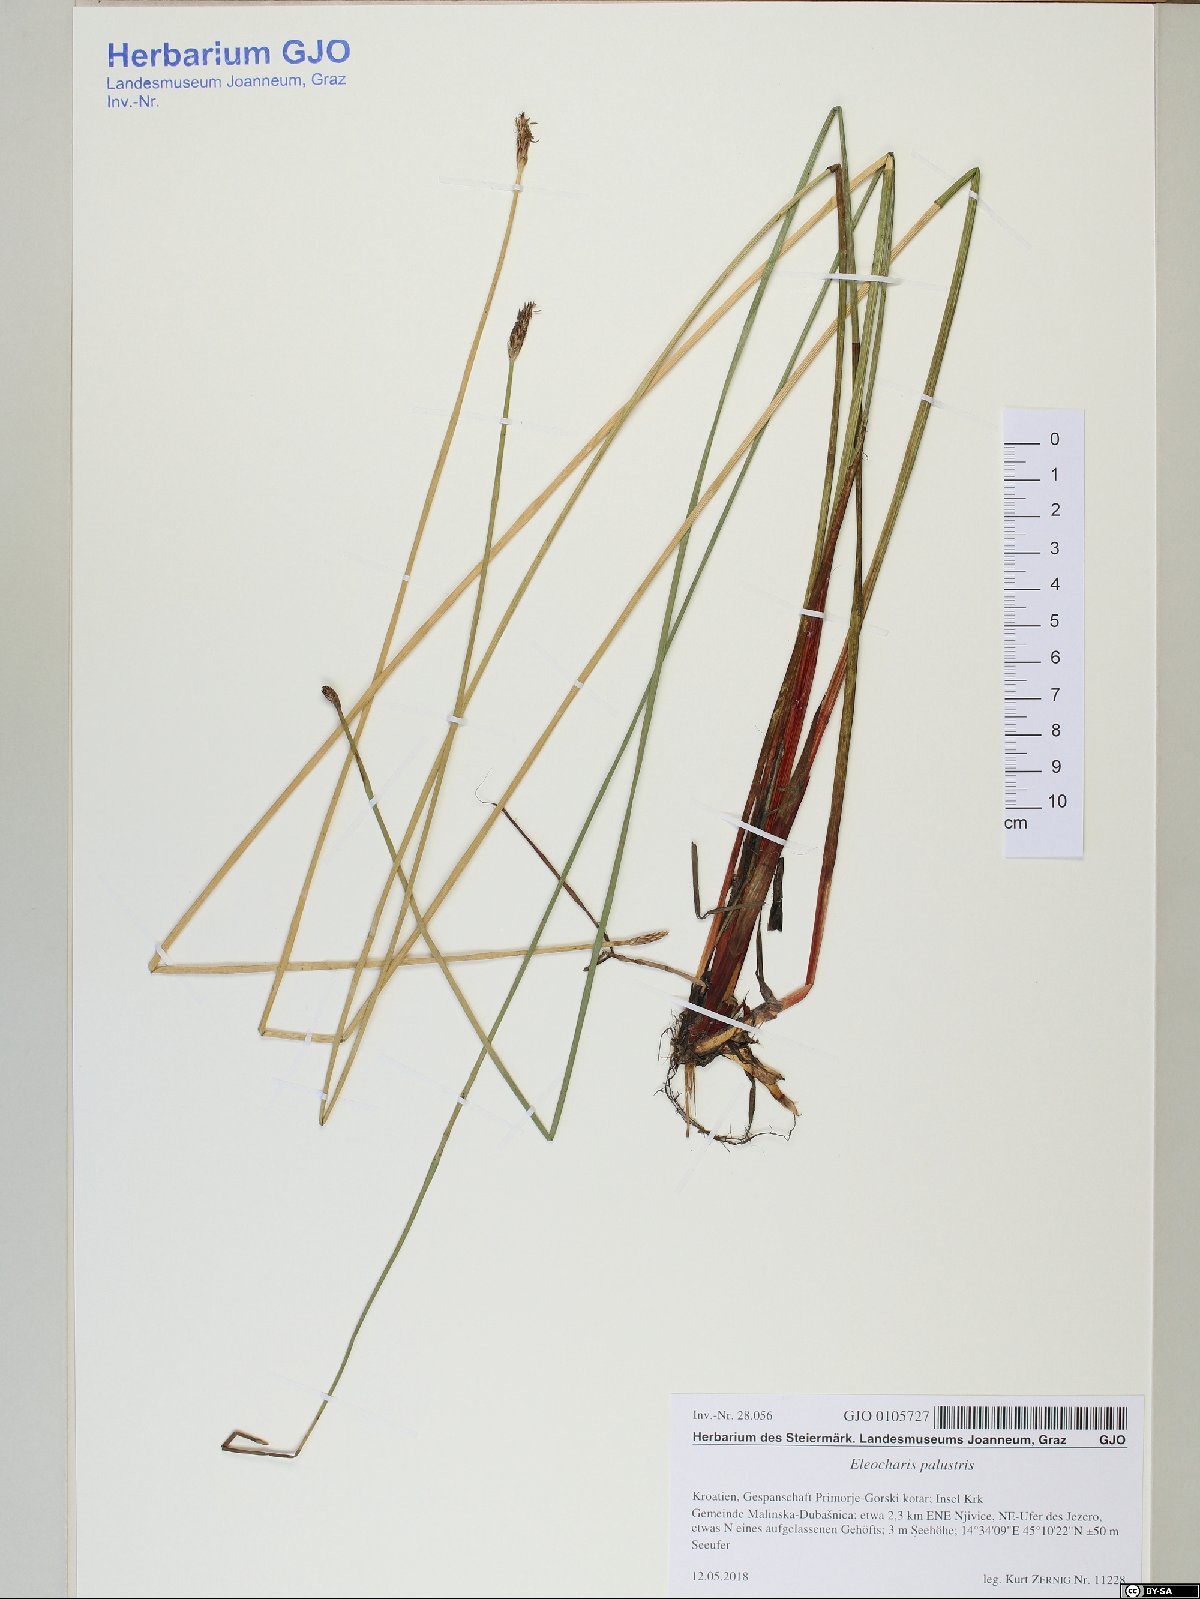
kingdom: Plantae
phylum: Tracheophyta
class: Liliopsida
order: Poales
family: Cyperaceae
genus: Eleocharis
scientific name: Eleocharis palustris
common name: Common spike-rush
